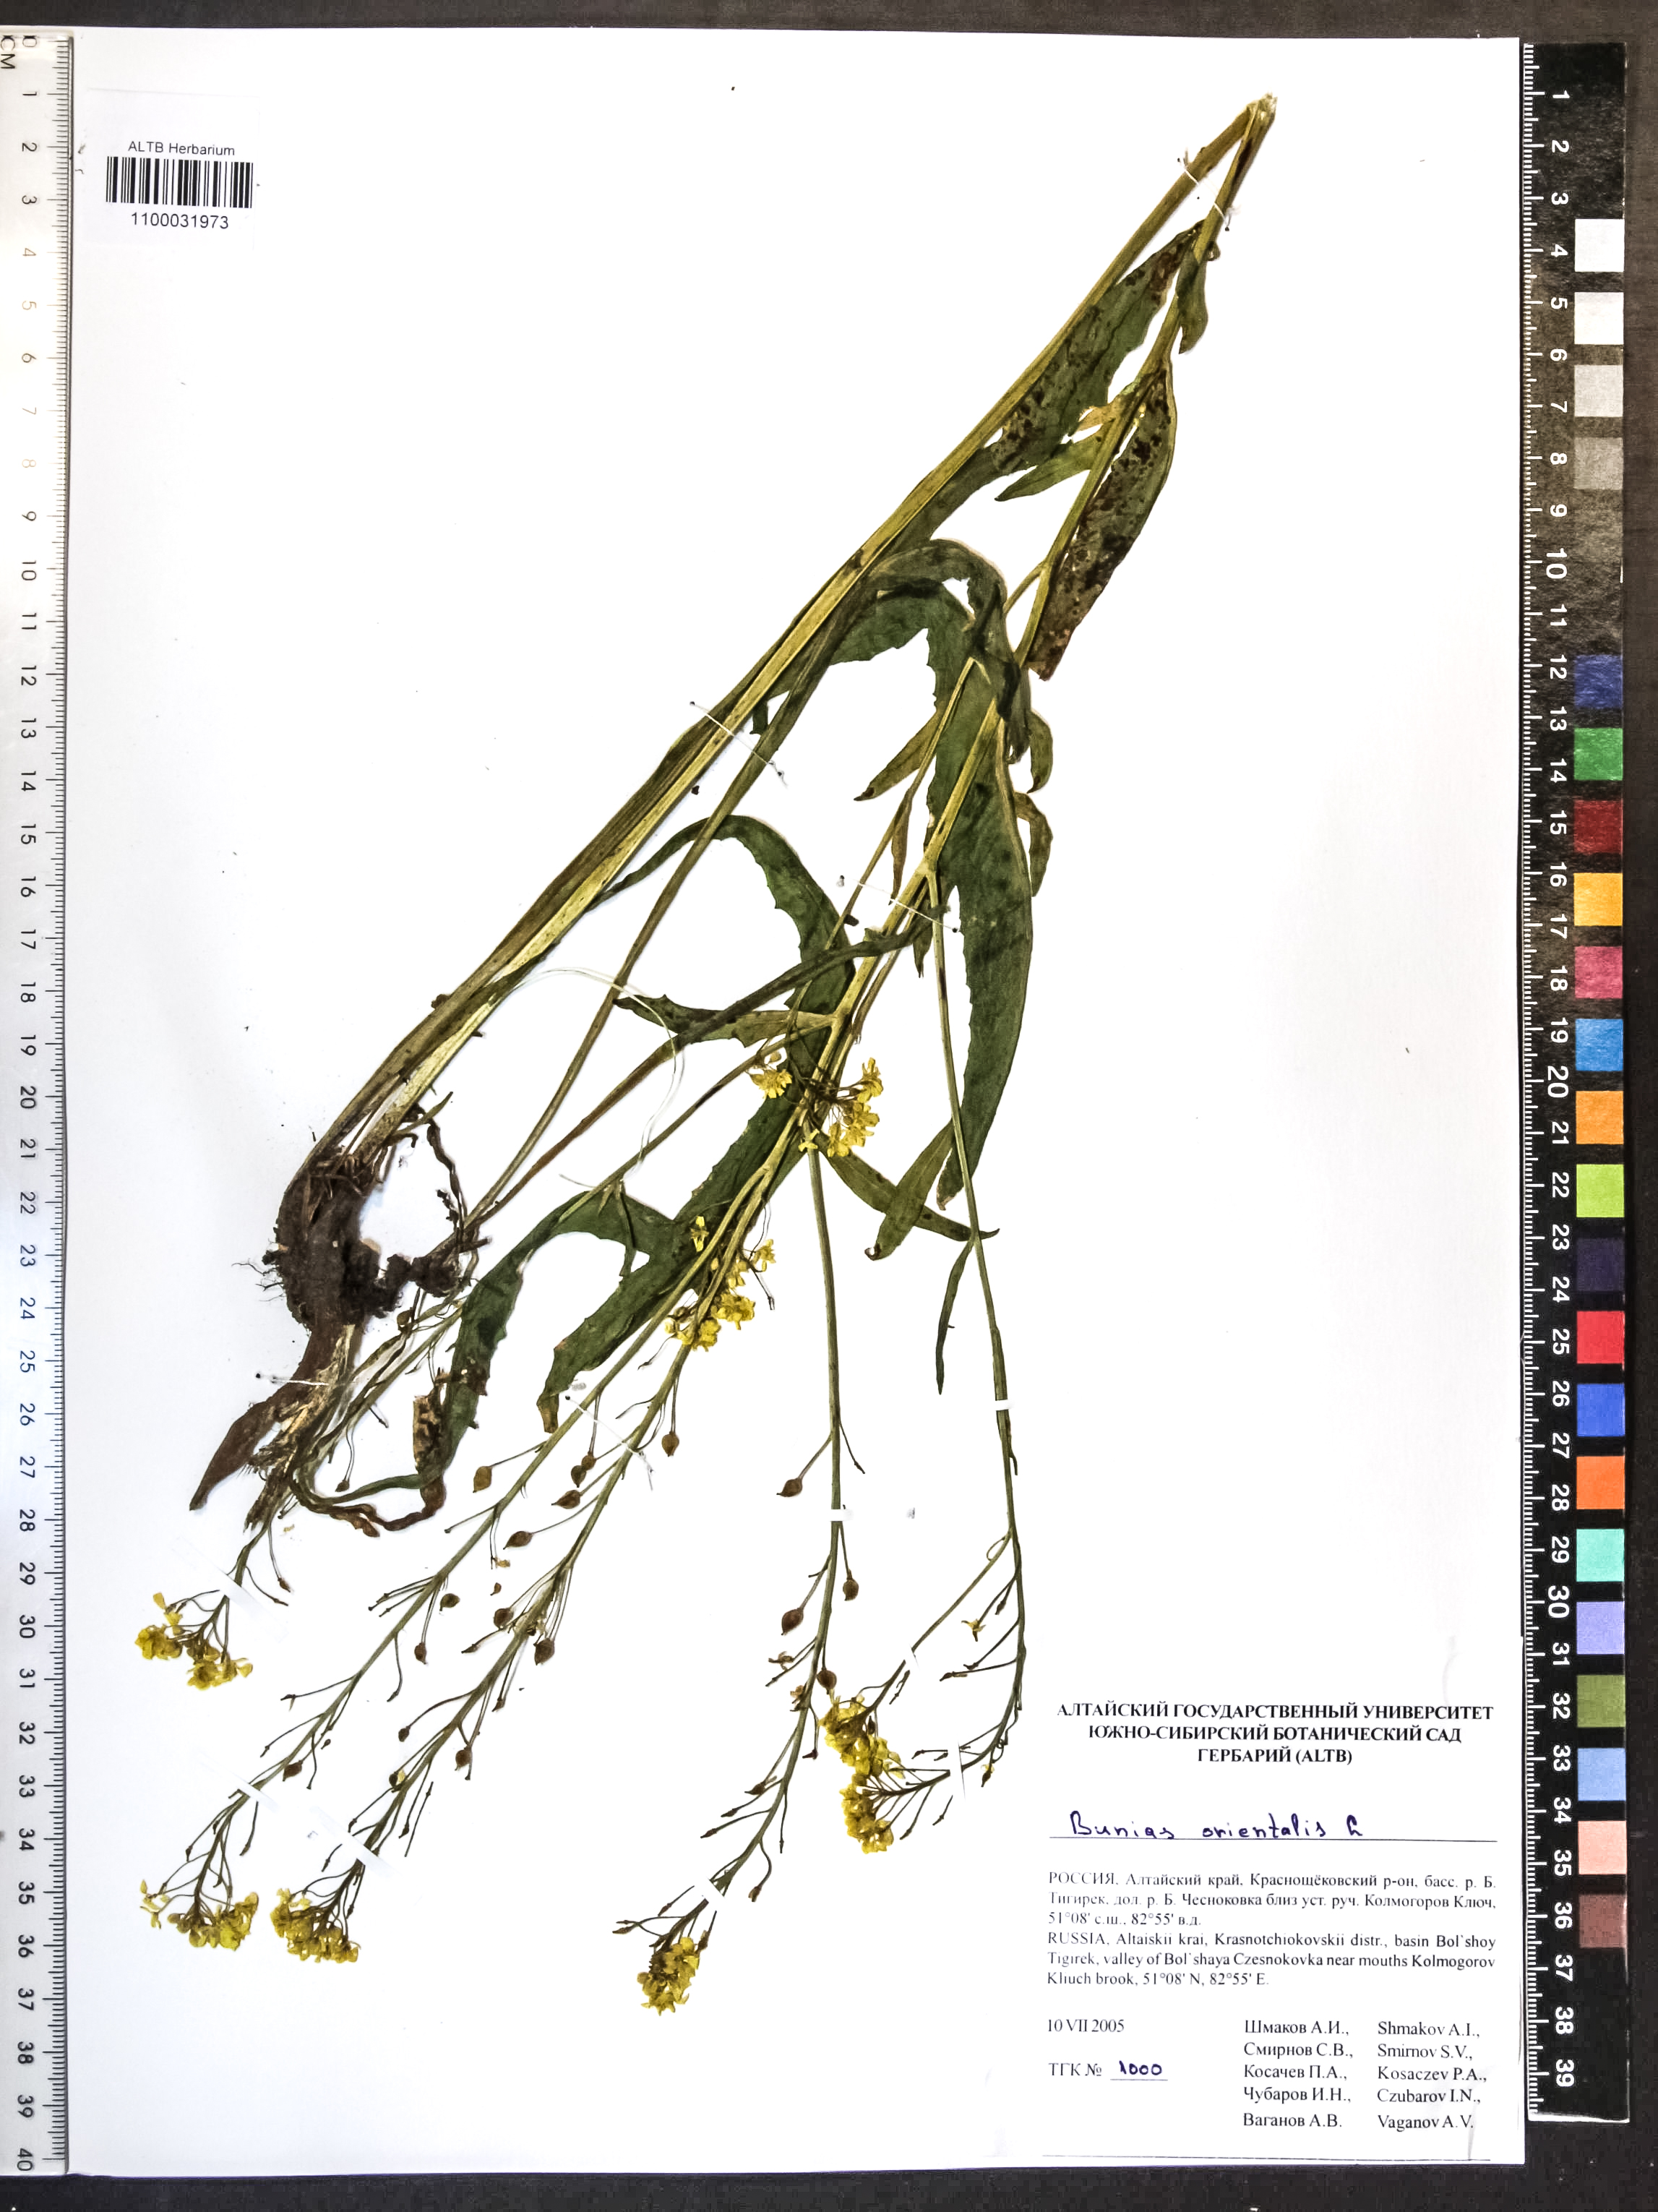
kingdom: Plantae
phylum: Tracheophyta
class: Magnoliopsida
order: Brassicales
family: Brassicaceae
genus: Bunias
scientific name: Bunias orientalis
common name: Warty-cabbage
